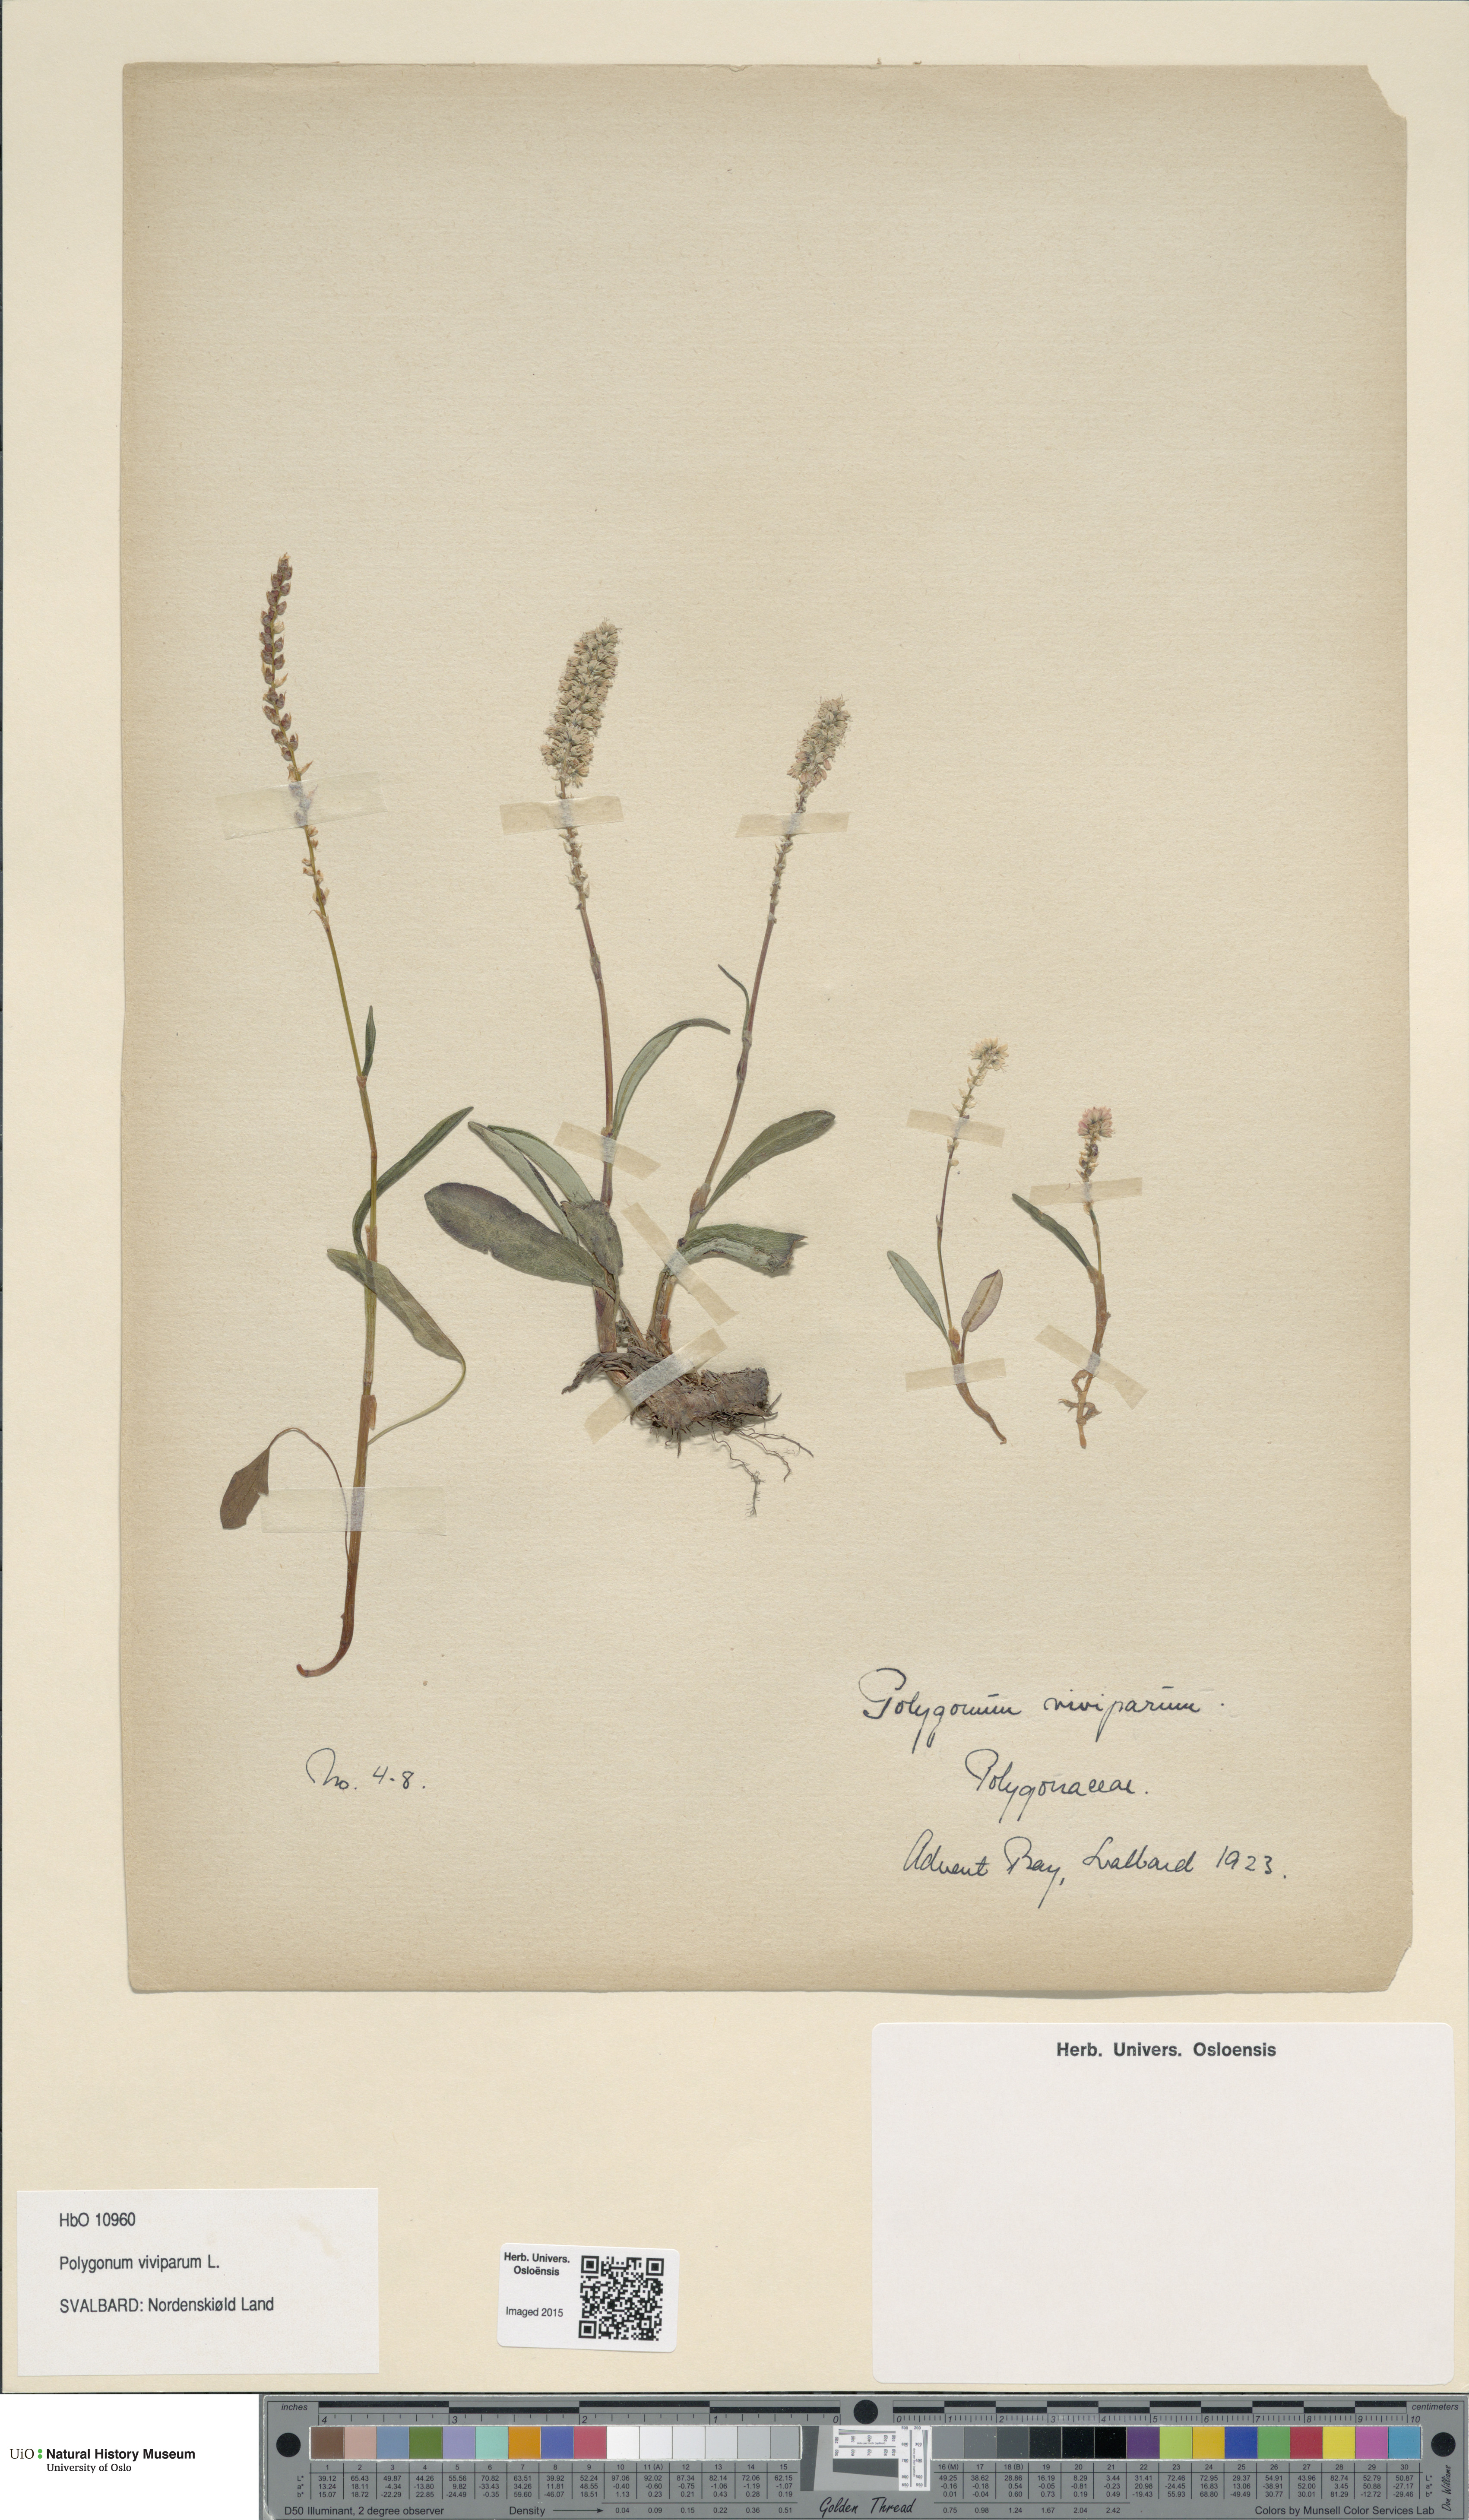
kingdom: Plantae
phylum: Tracheophyta
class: Magnoliopsida
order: Caryophyllales
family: Polygonaceae
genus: Bistorta
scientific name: Bistorta vivipara
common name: Alpine bistort
